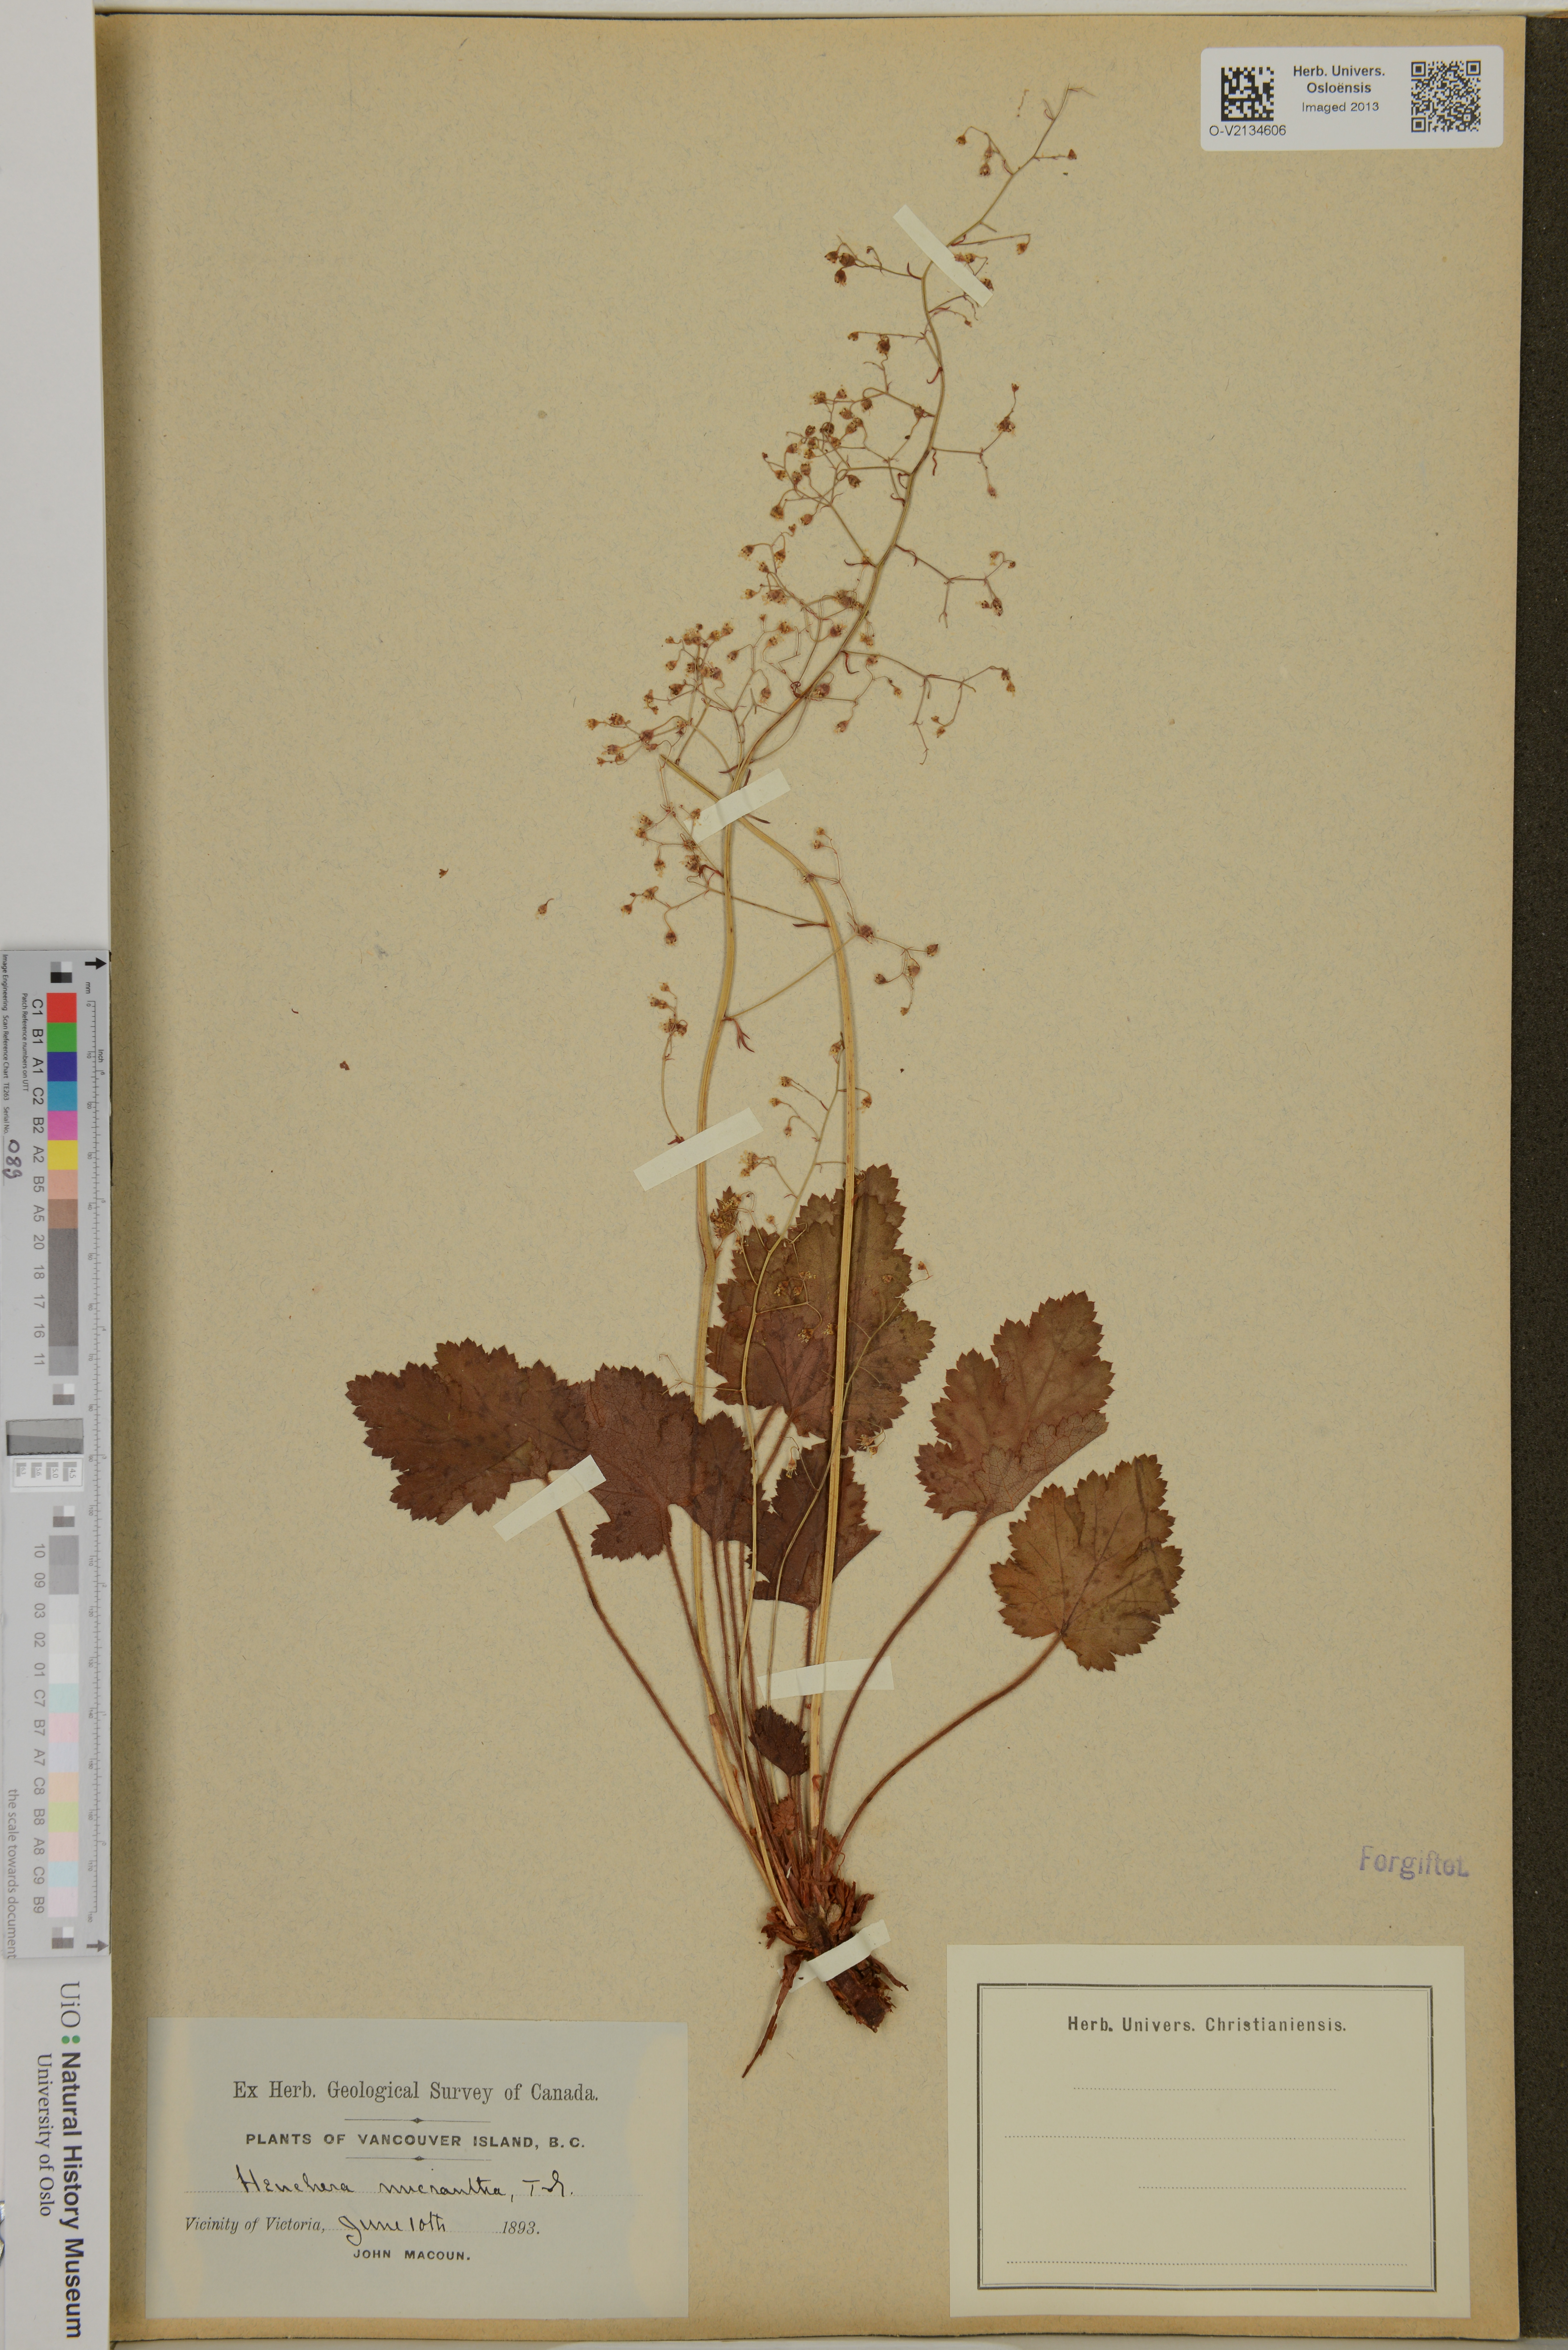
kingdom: Plantae
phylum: Tracheophyta
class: Magnoliopsida
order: Saxifragales
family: Saxifragaceae
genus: Heuchera
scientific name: Heuchera micrantha
